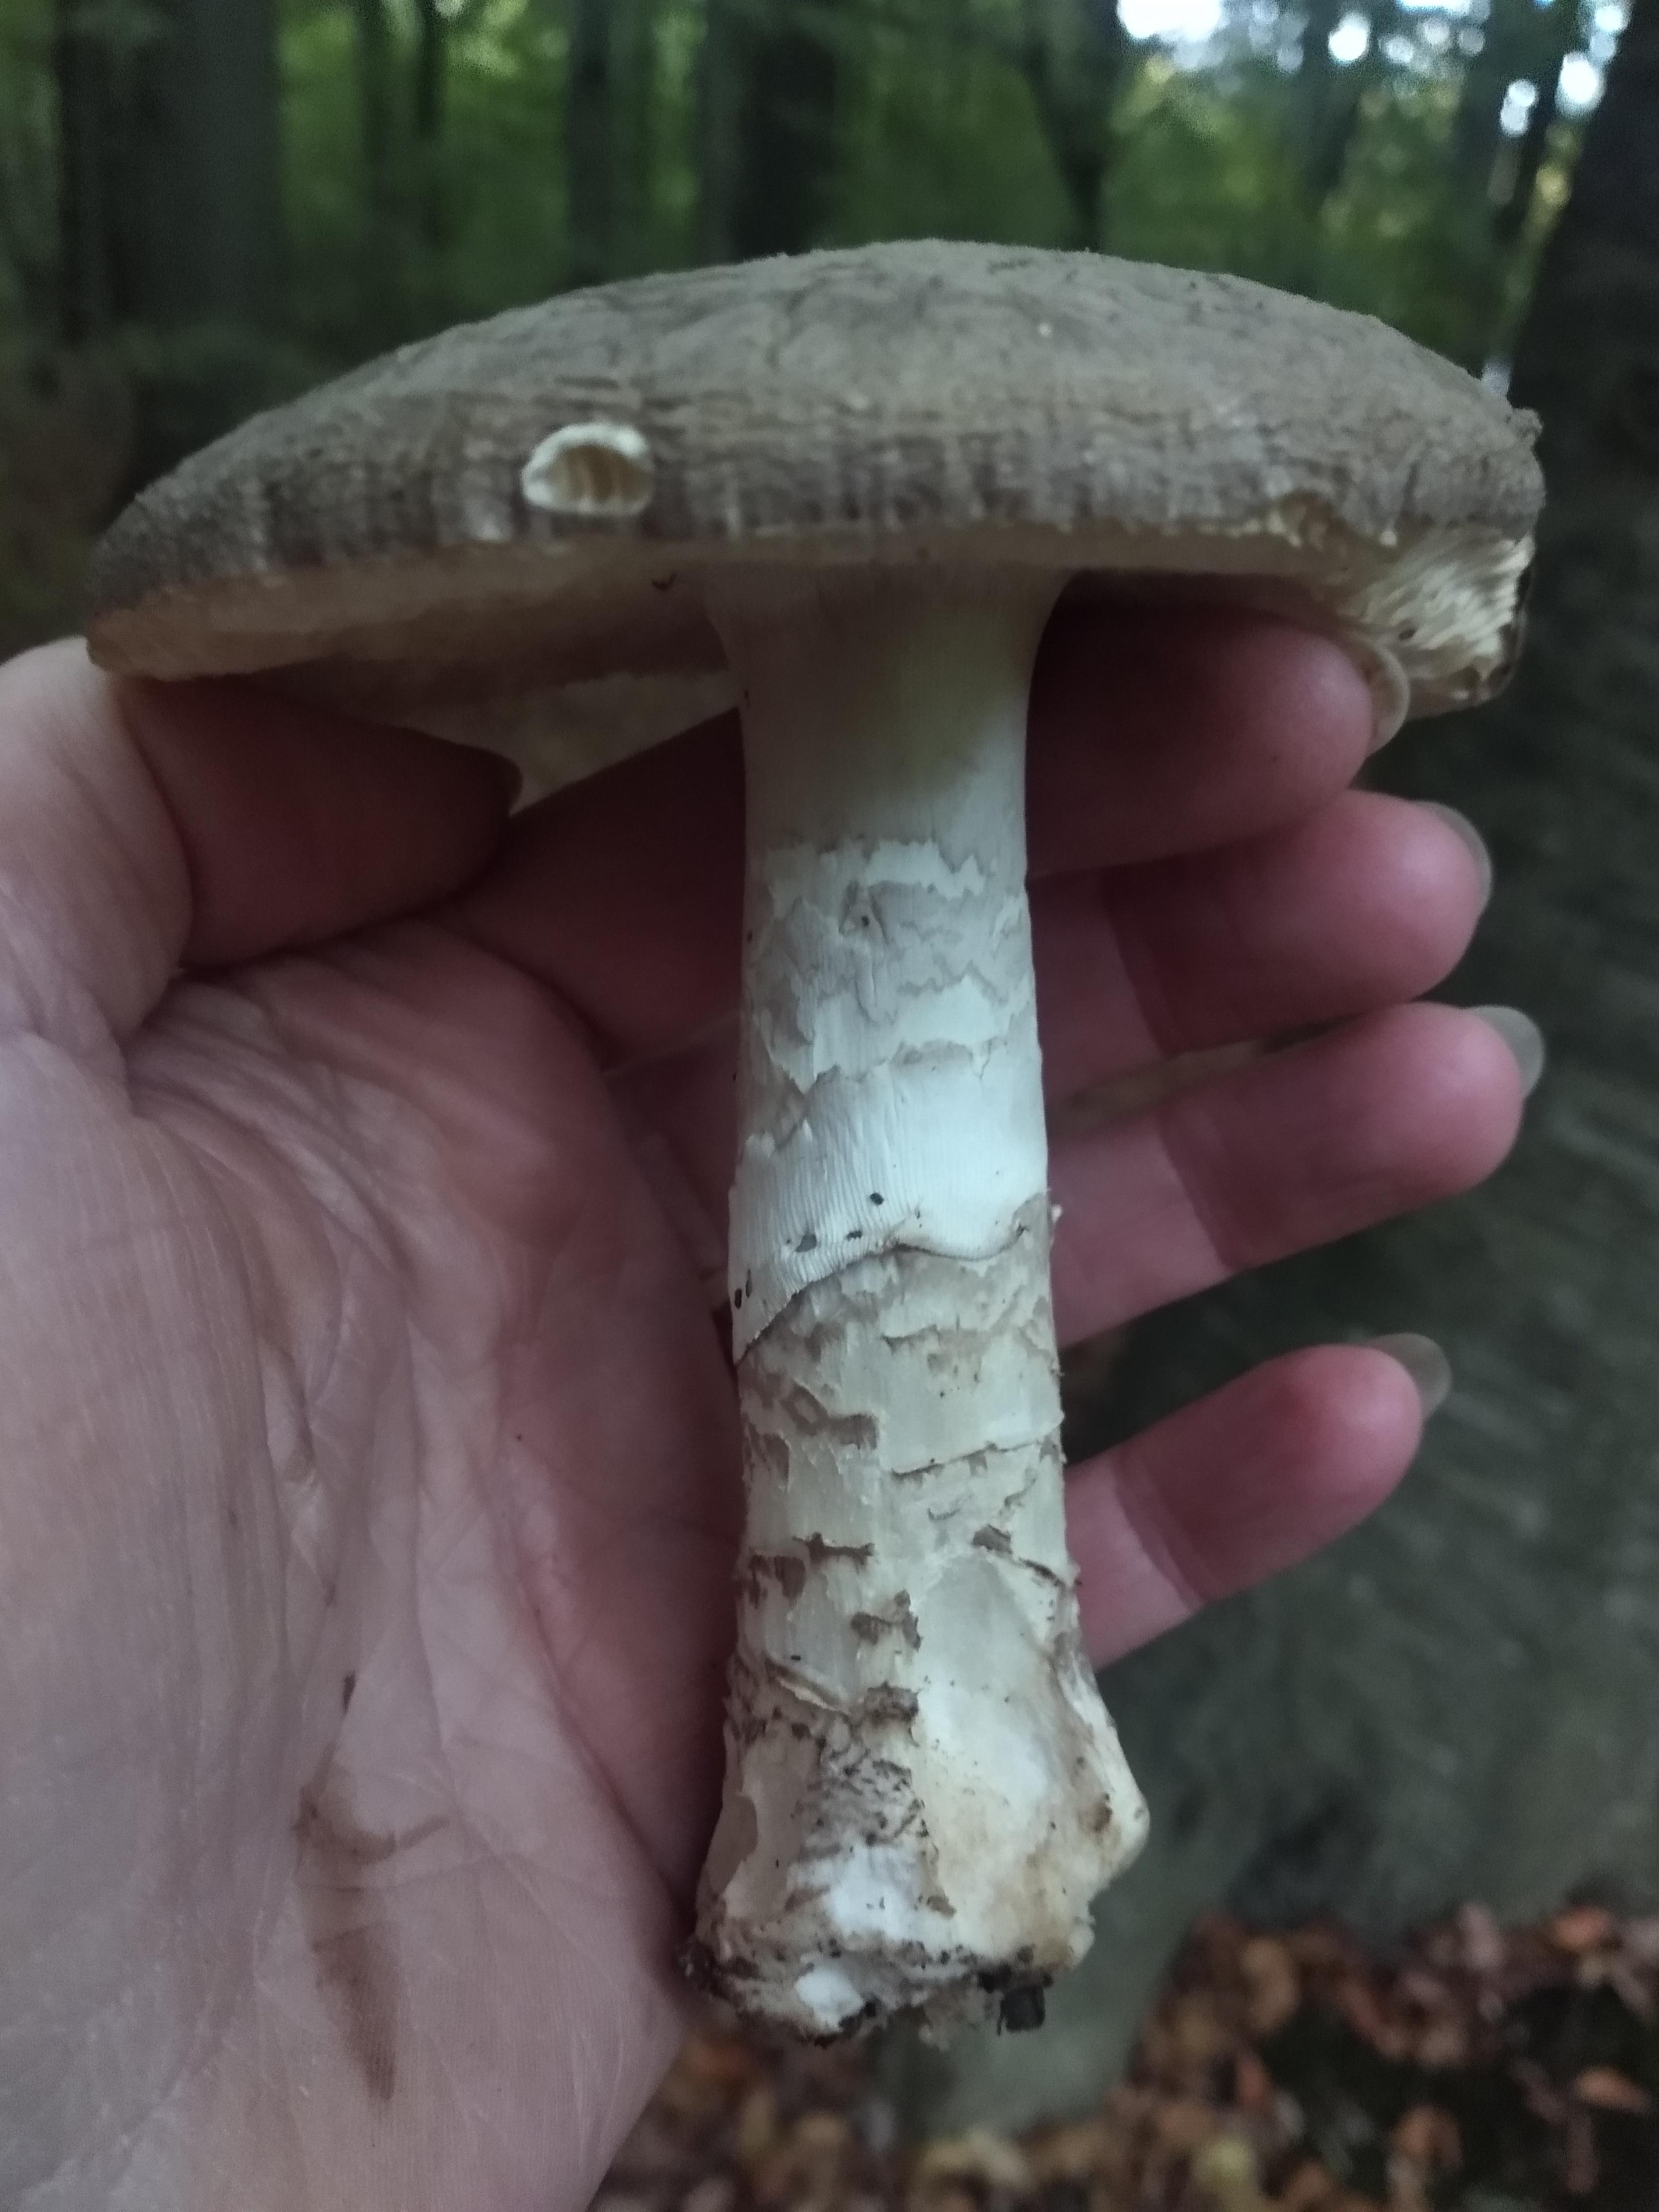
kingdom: Fungi
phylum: Basidiomycota
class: Agaricomycetes
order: Agaricales
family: Amanitaceae
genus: Amanita
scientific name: Amanita
